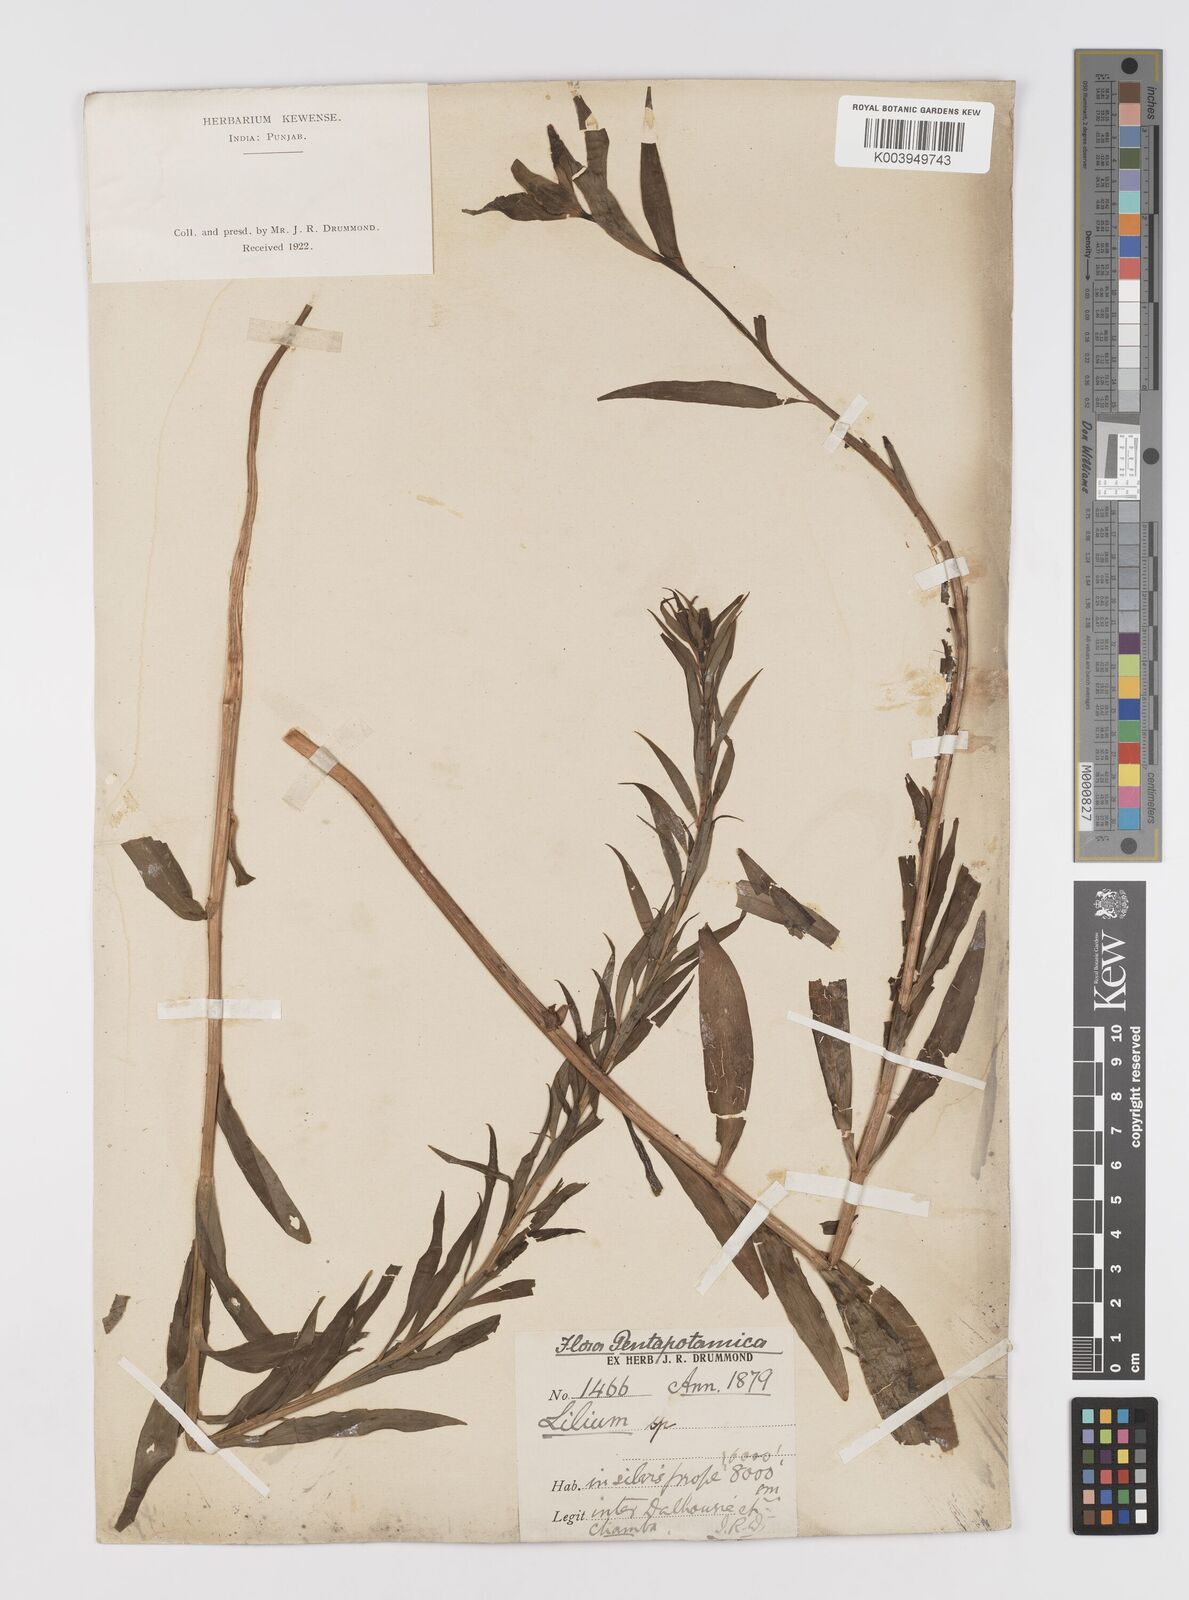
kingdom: Plantae
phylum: Tracheophyta
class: Liliopsida
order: Liliales
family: Liliaceae
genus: Lilium
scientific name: Lilium polyphyllum
